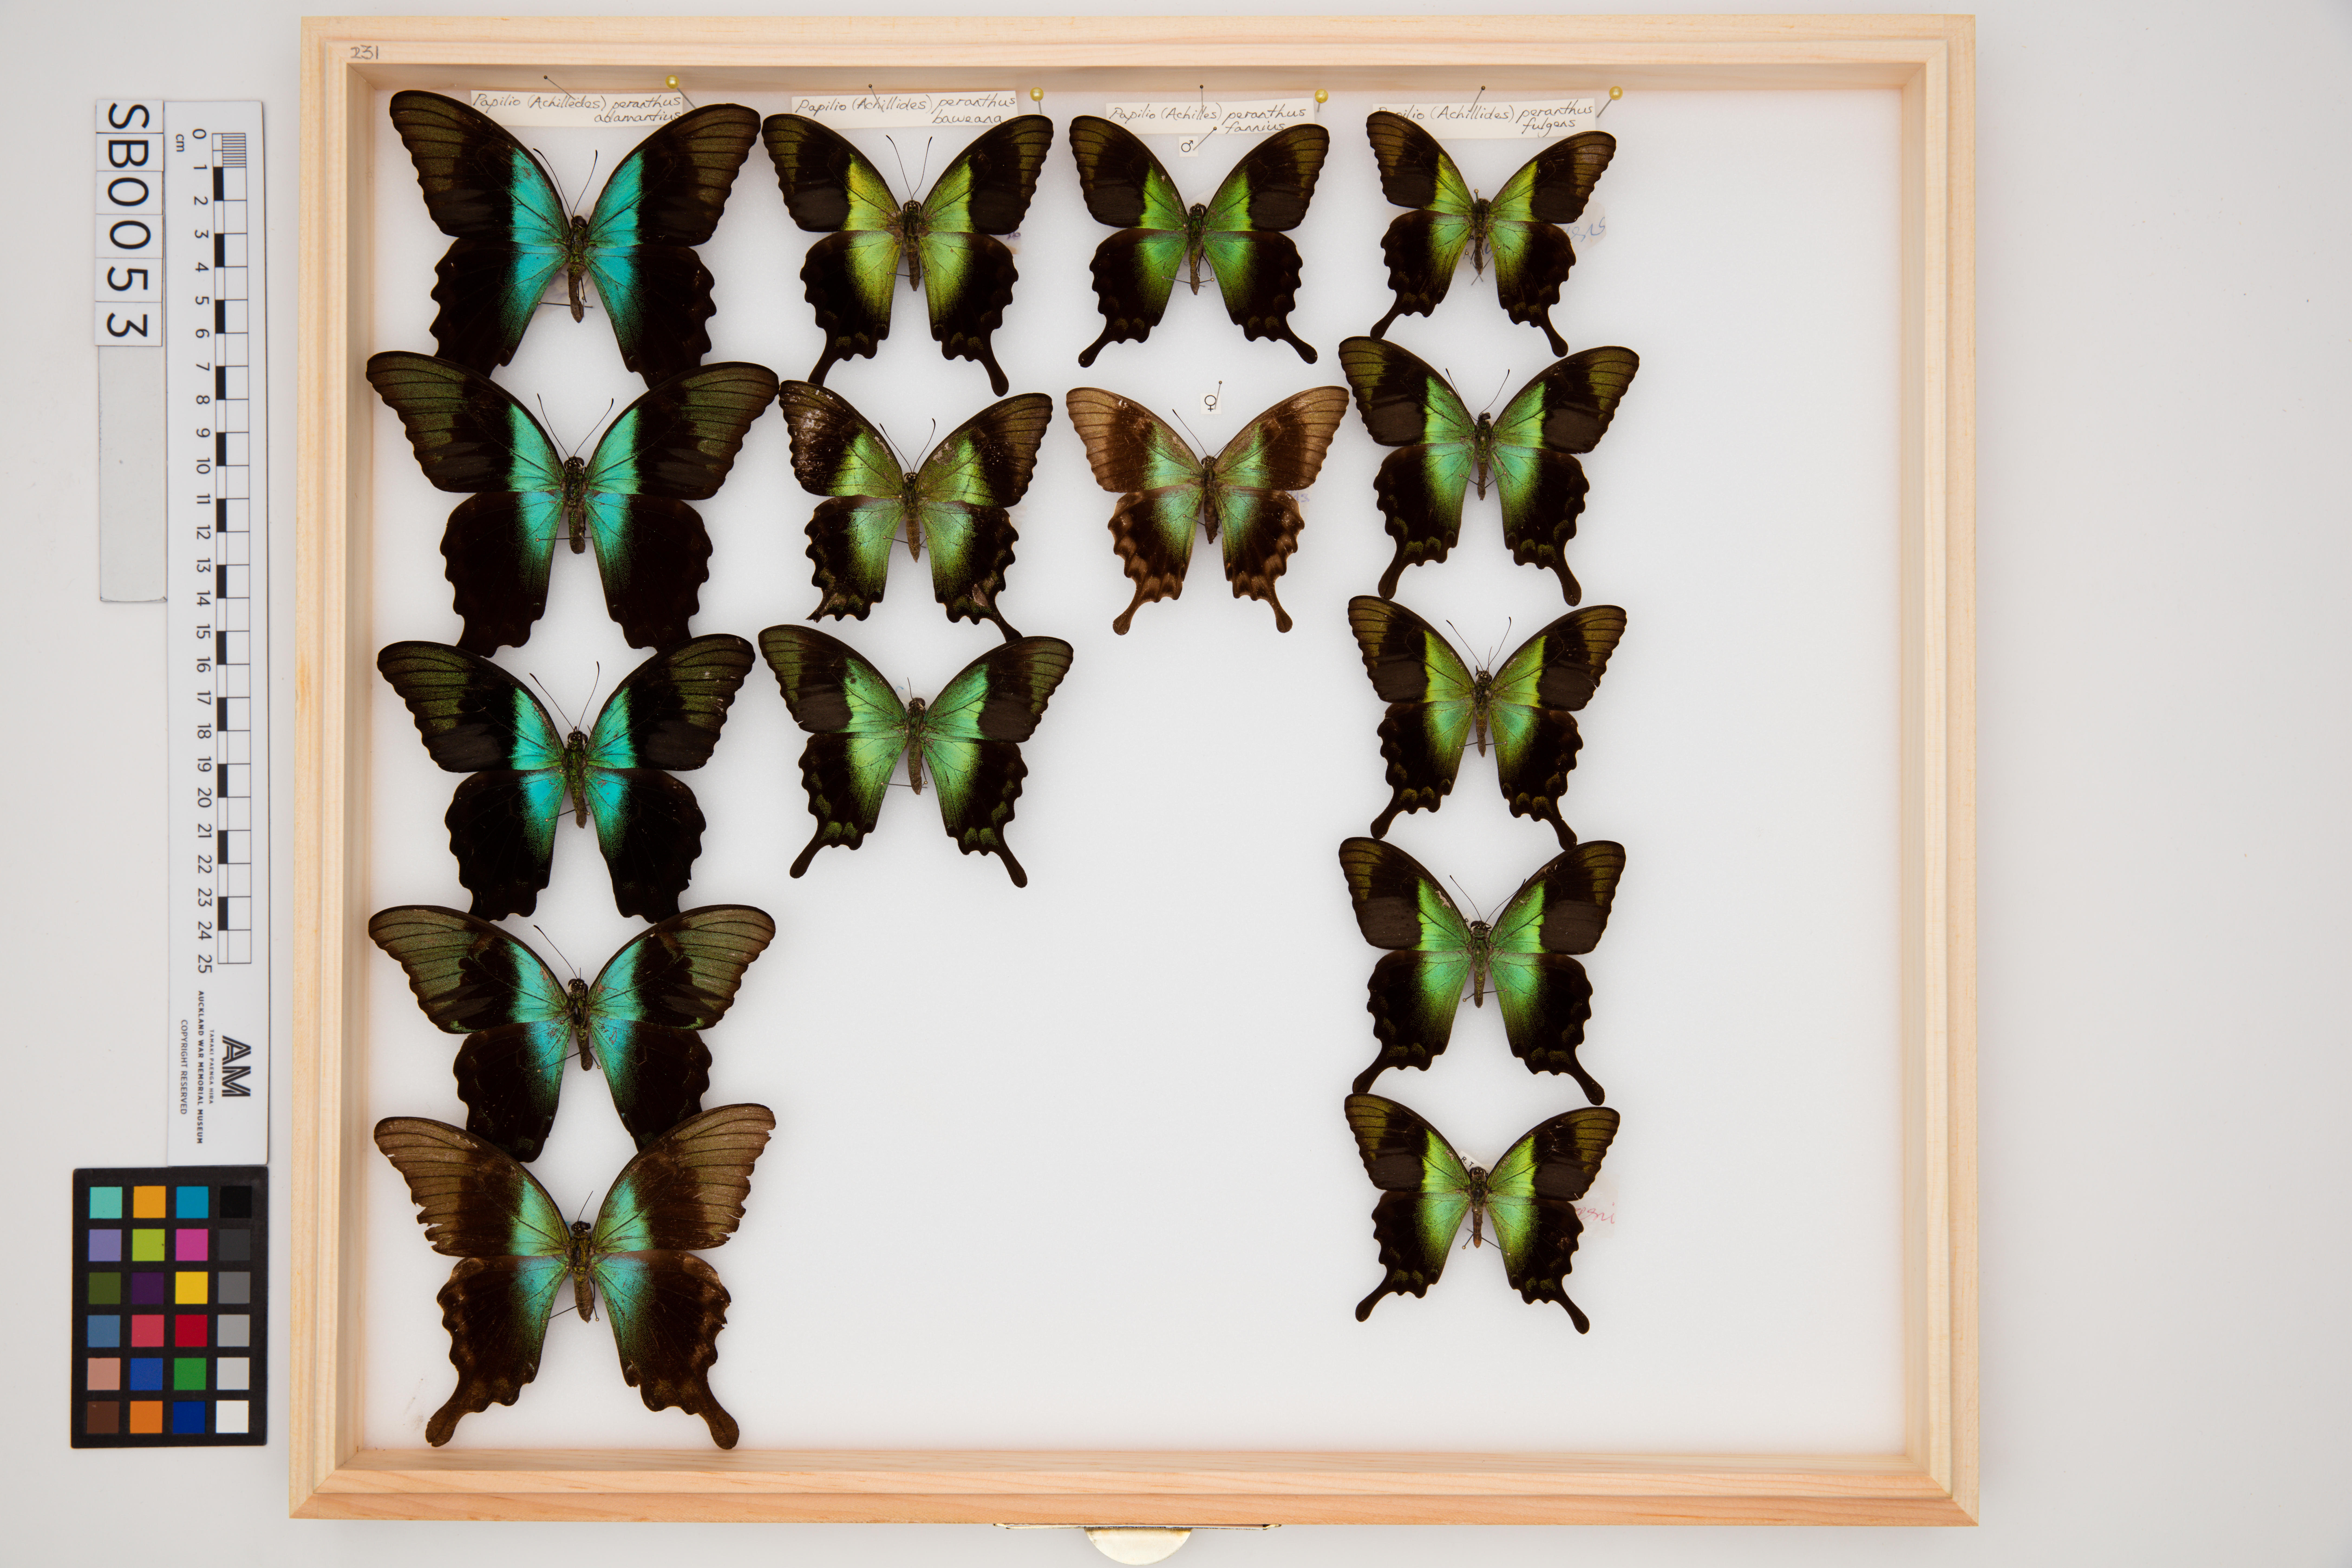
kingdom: Animalia
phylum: Arthropoda
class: Insecta
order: Lepidoptera
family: Papilionidae
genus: Papilio
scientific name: Papilio peranthus
